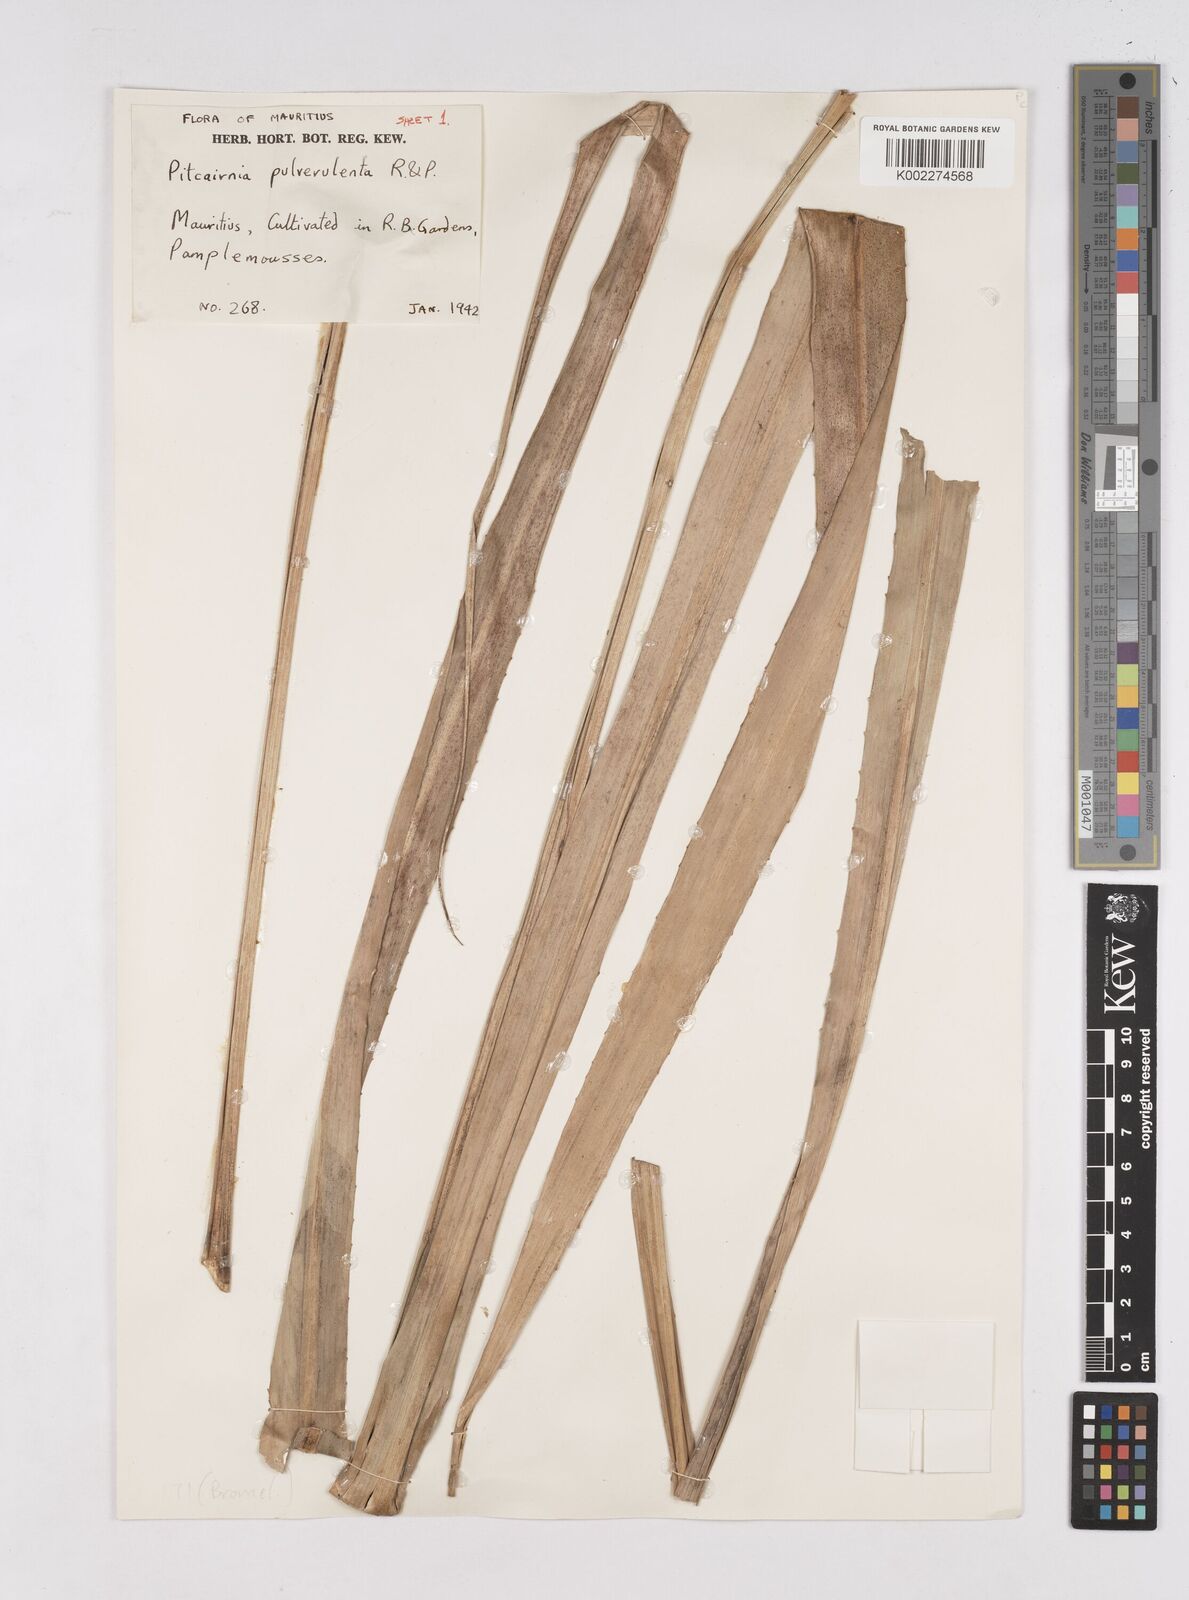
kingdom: Plantae
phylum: Tracheophyta
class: Liliopsida
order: Poales
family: Bromeliaceae
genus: Pitcairnia
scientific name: Pitcairnia pulverulenta
